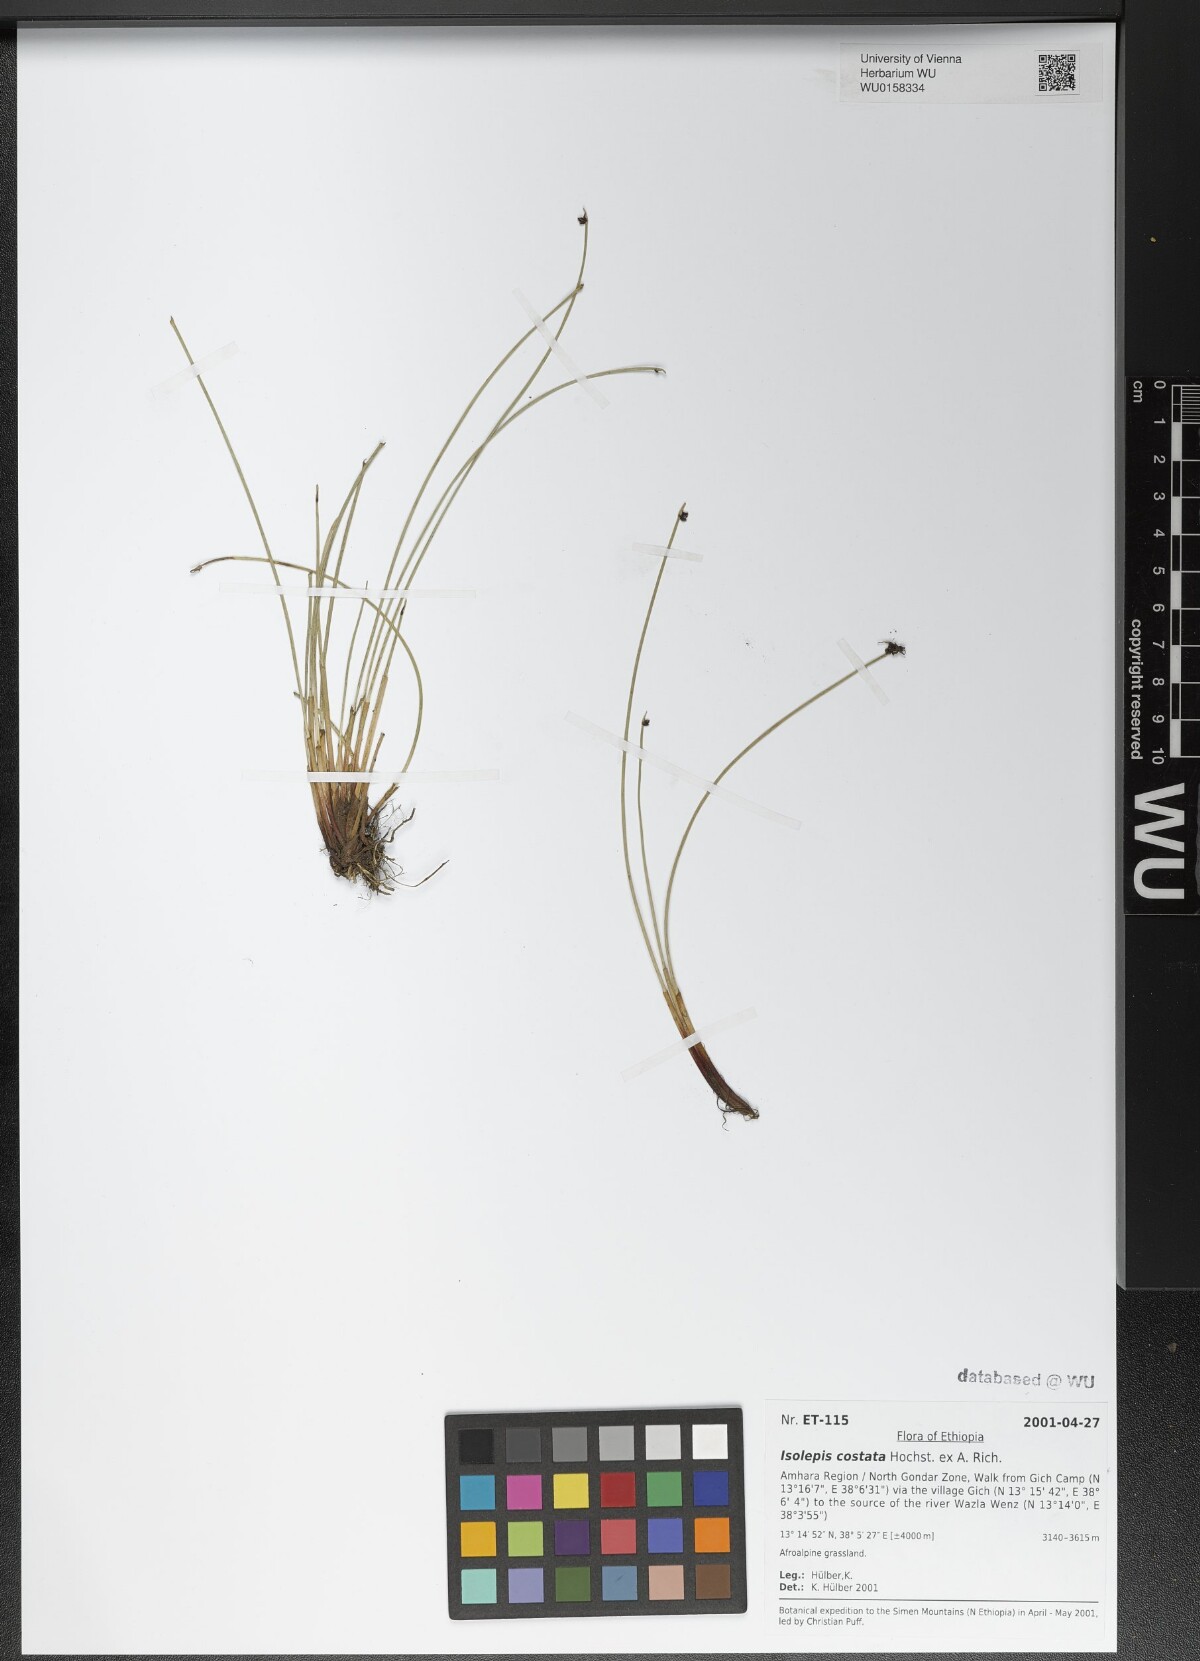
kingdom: Plantae
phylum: Tracheophyta
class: Liliopsida
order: Poales
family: Cyperaceae
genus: Isolepis
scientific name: Isolepis costata
